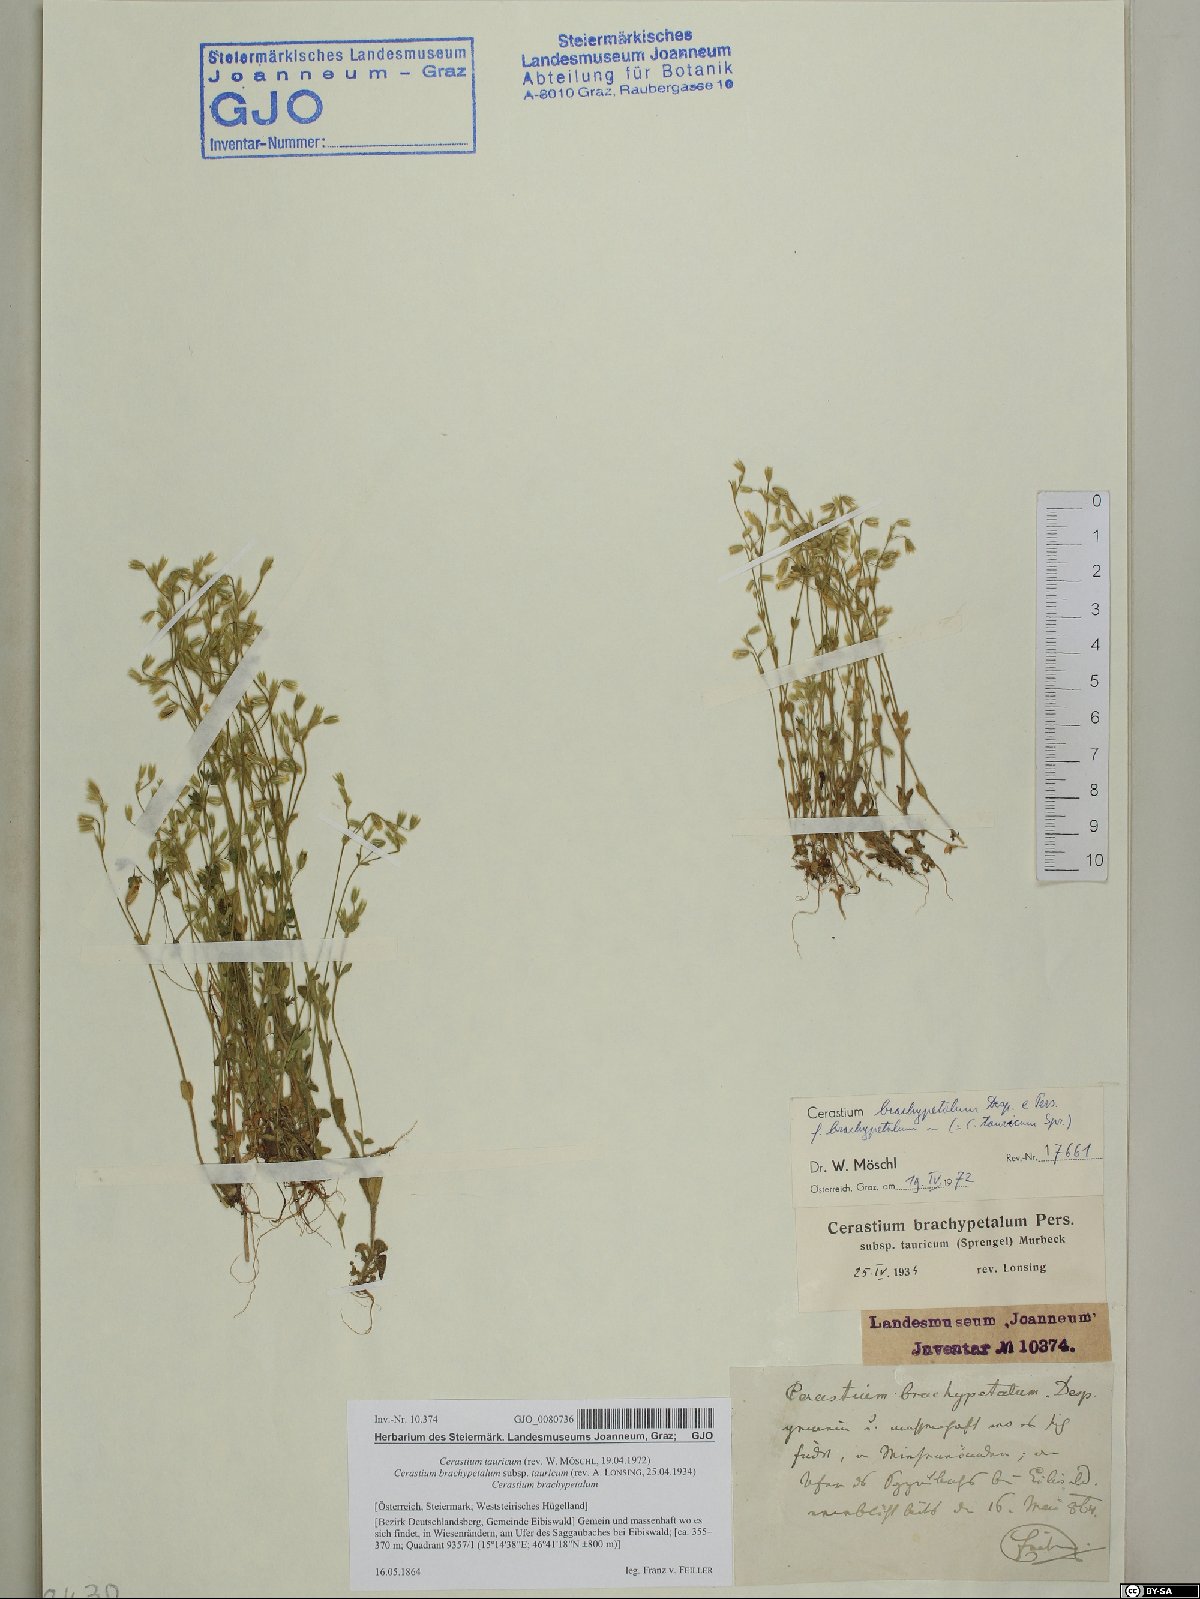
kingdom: Plantae
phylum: Tracheophyta
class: Magnoliopsida
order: Caryophyllales
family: Caryophyllaceae
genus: Cerastium
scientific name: Cerastium brachypetalum
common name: Grey mouse-ear
